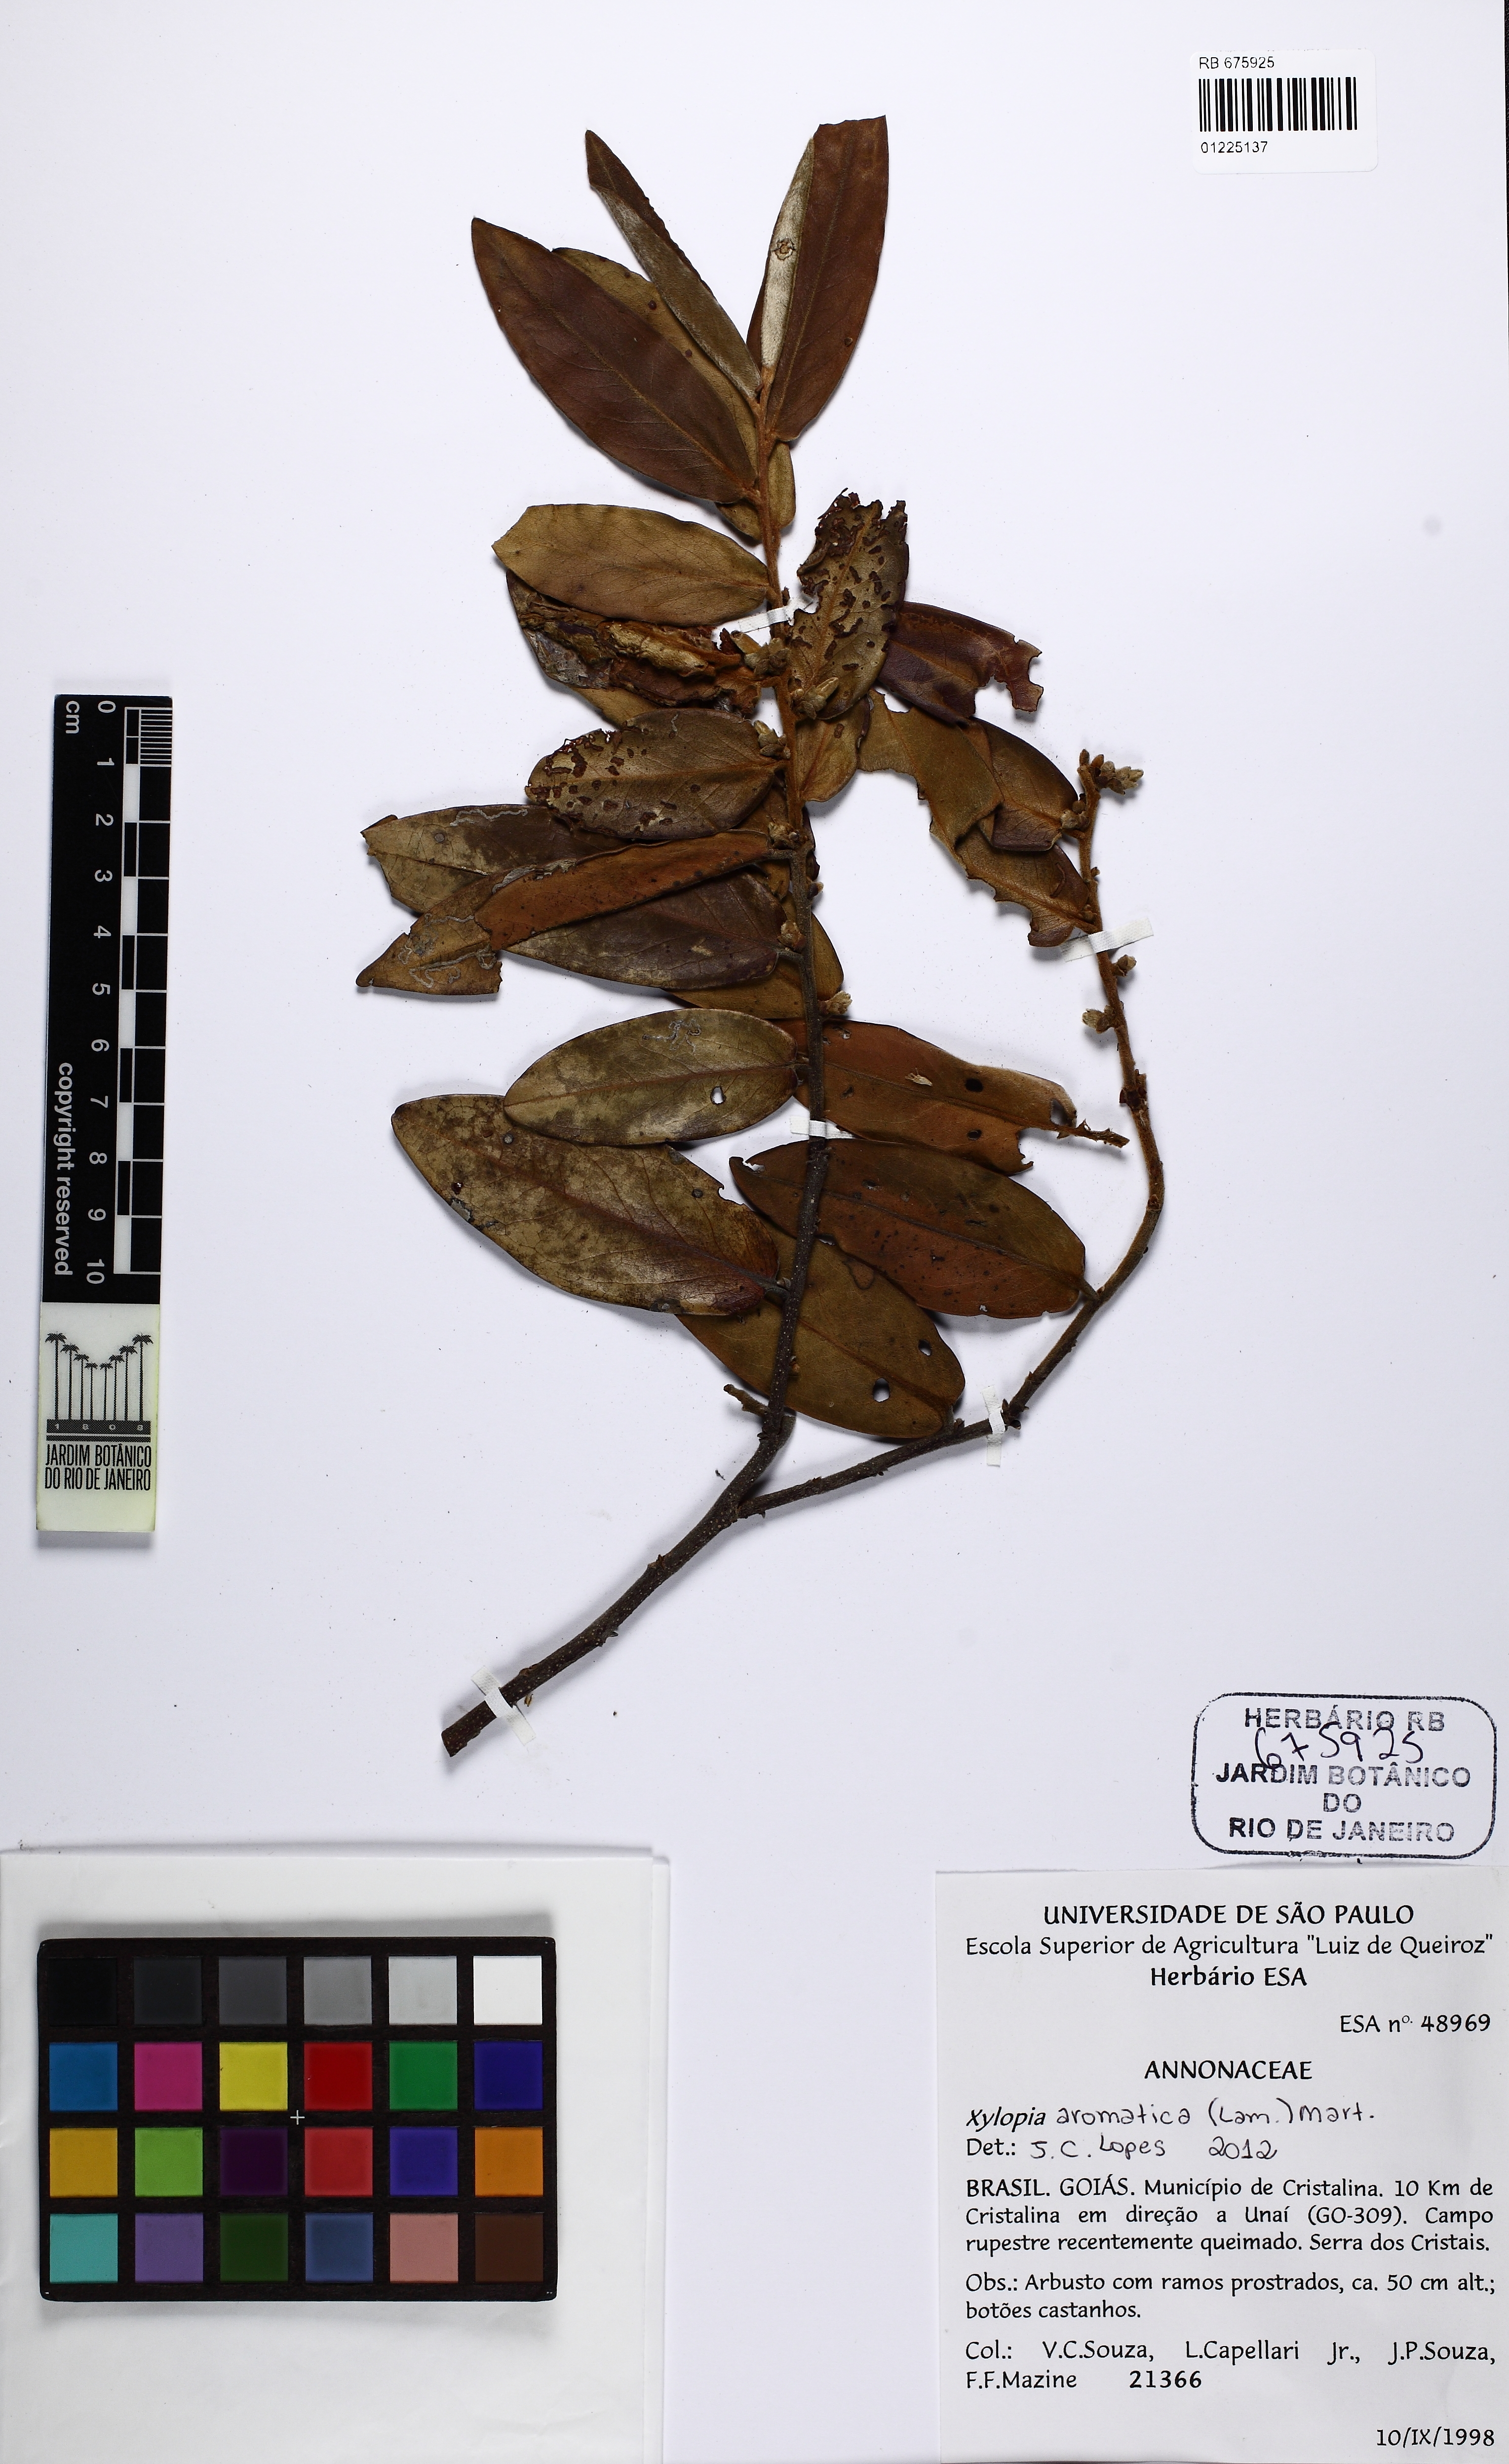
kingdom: Plantae
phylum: Tracheophyta
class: Magnoliopsida
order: Magnoliales
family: Annonaceae
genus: Xylopia
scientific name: Xylopia aromatica
